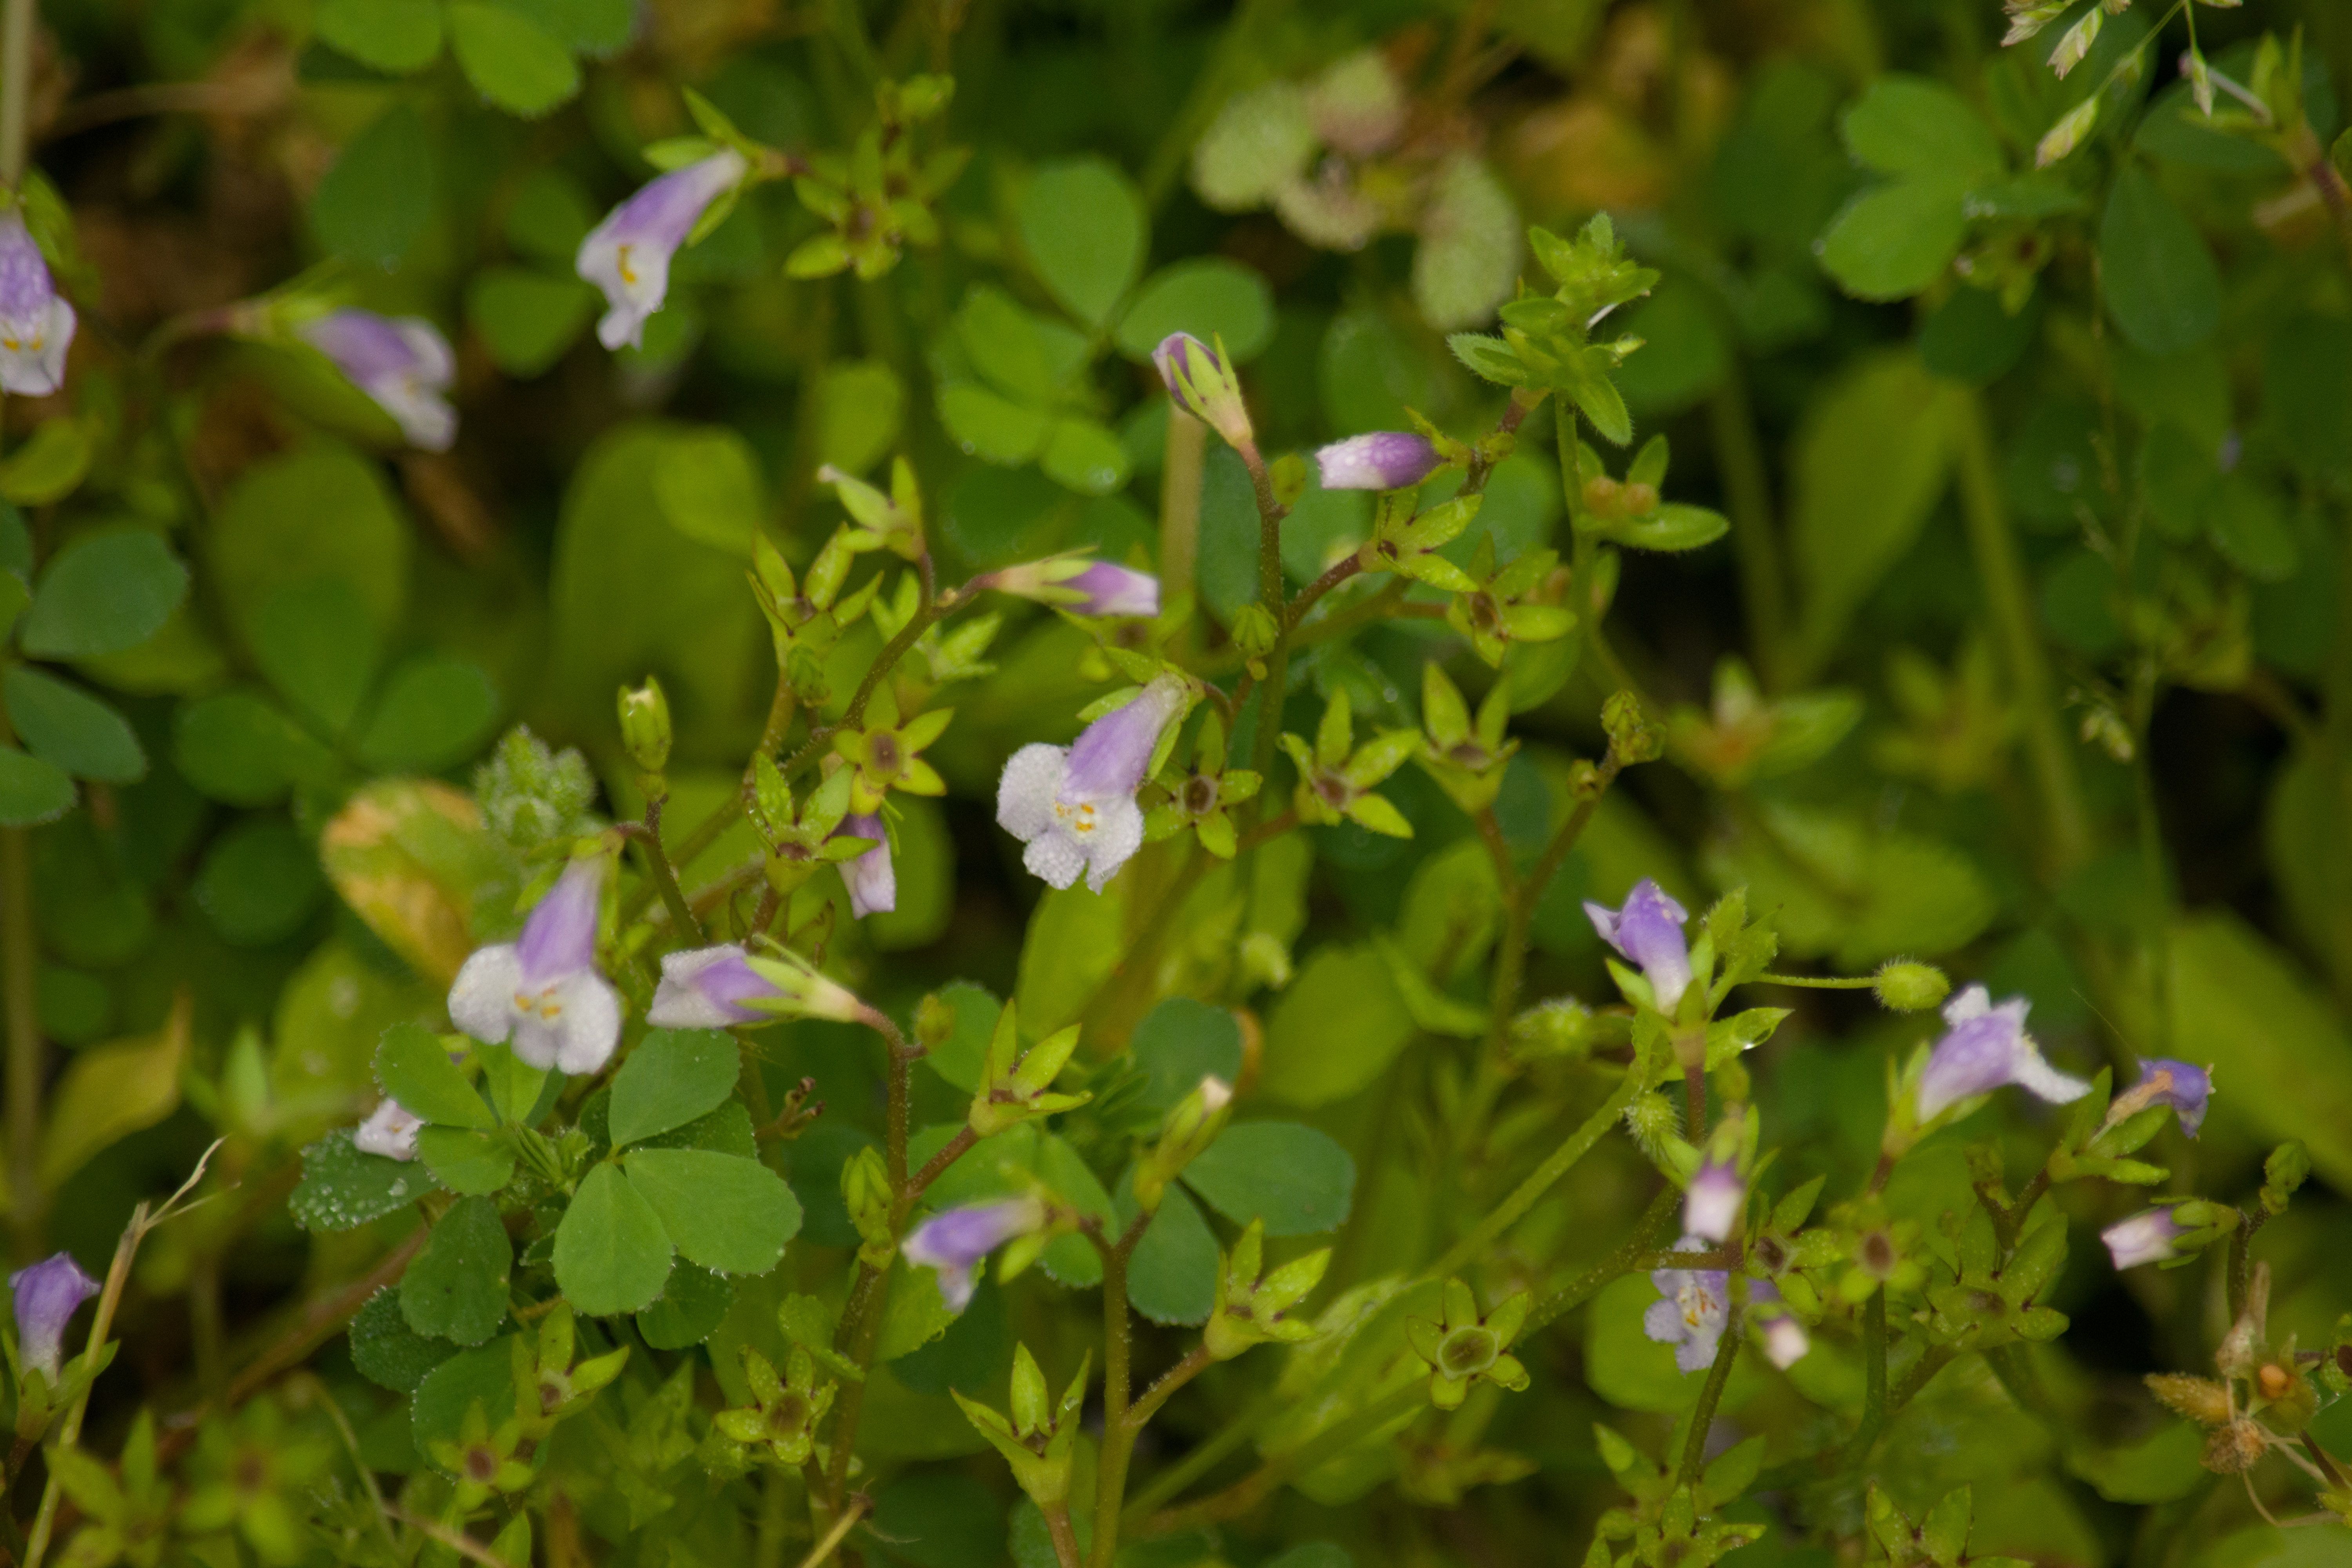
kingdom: Plantae
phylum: Tracheophyta
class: Magnoliopsida
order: Lamiales
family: Mazaceae
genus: Mazus
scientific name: Mazus pumilus
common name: Japanese mazus
